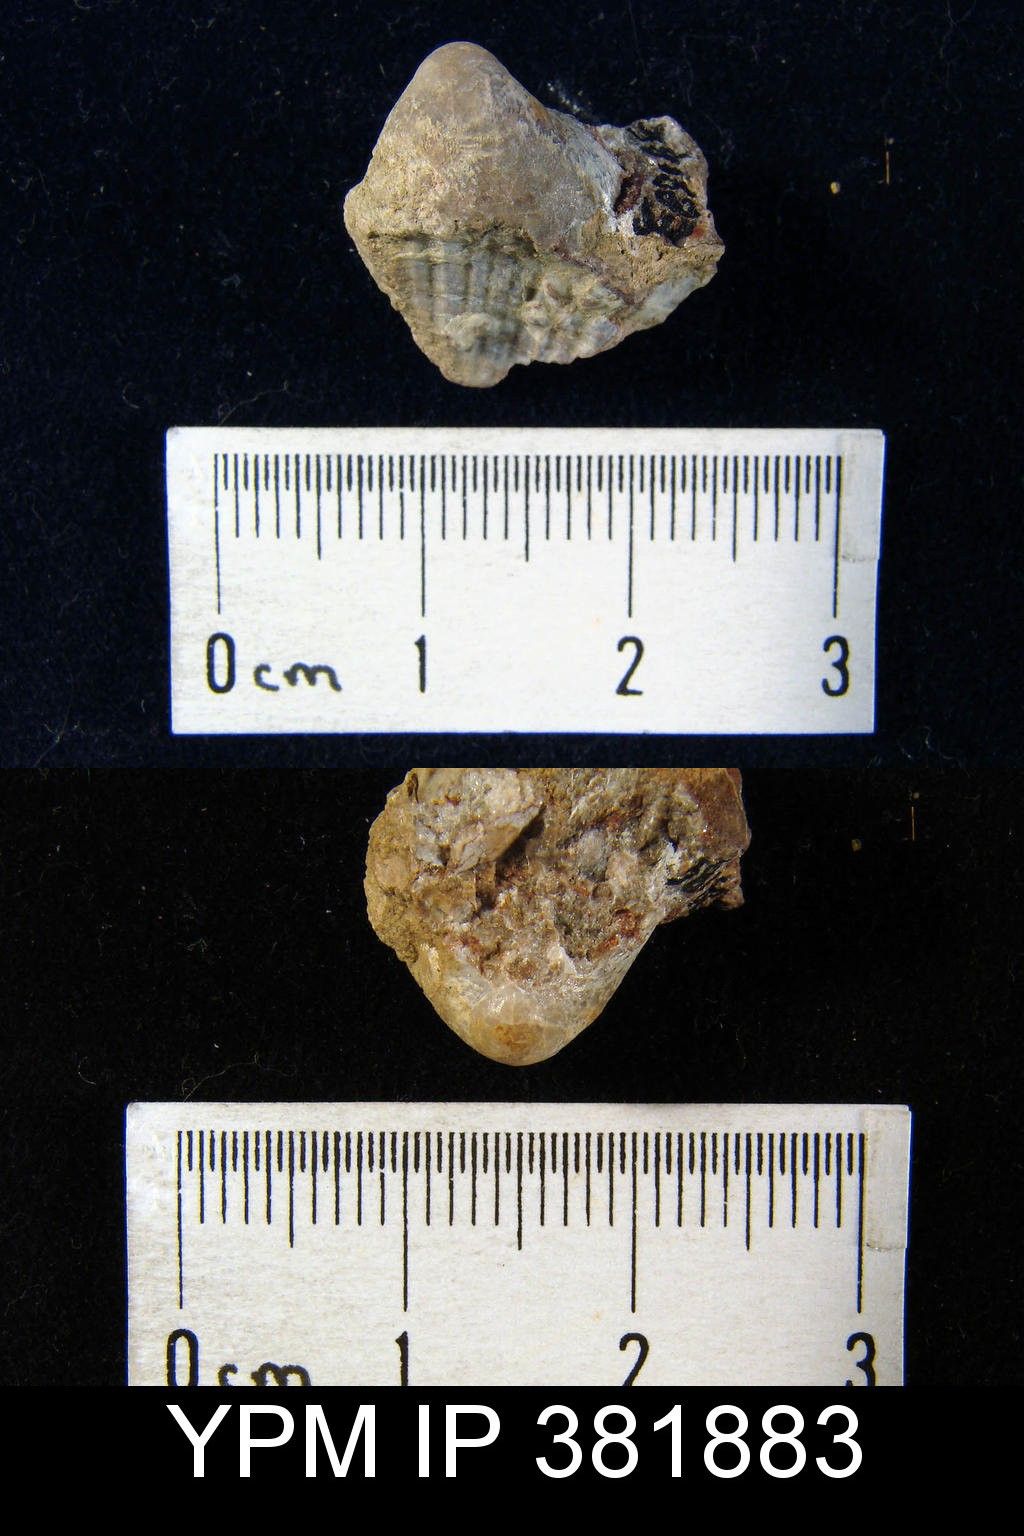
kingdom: Animalia
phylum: Brachiopoda
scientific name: Brachiopoda
